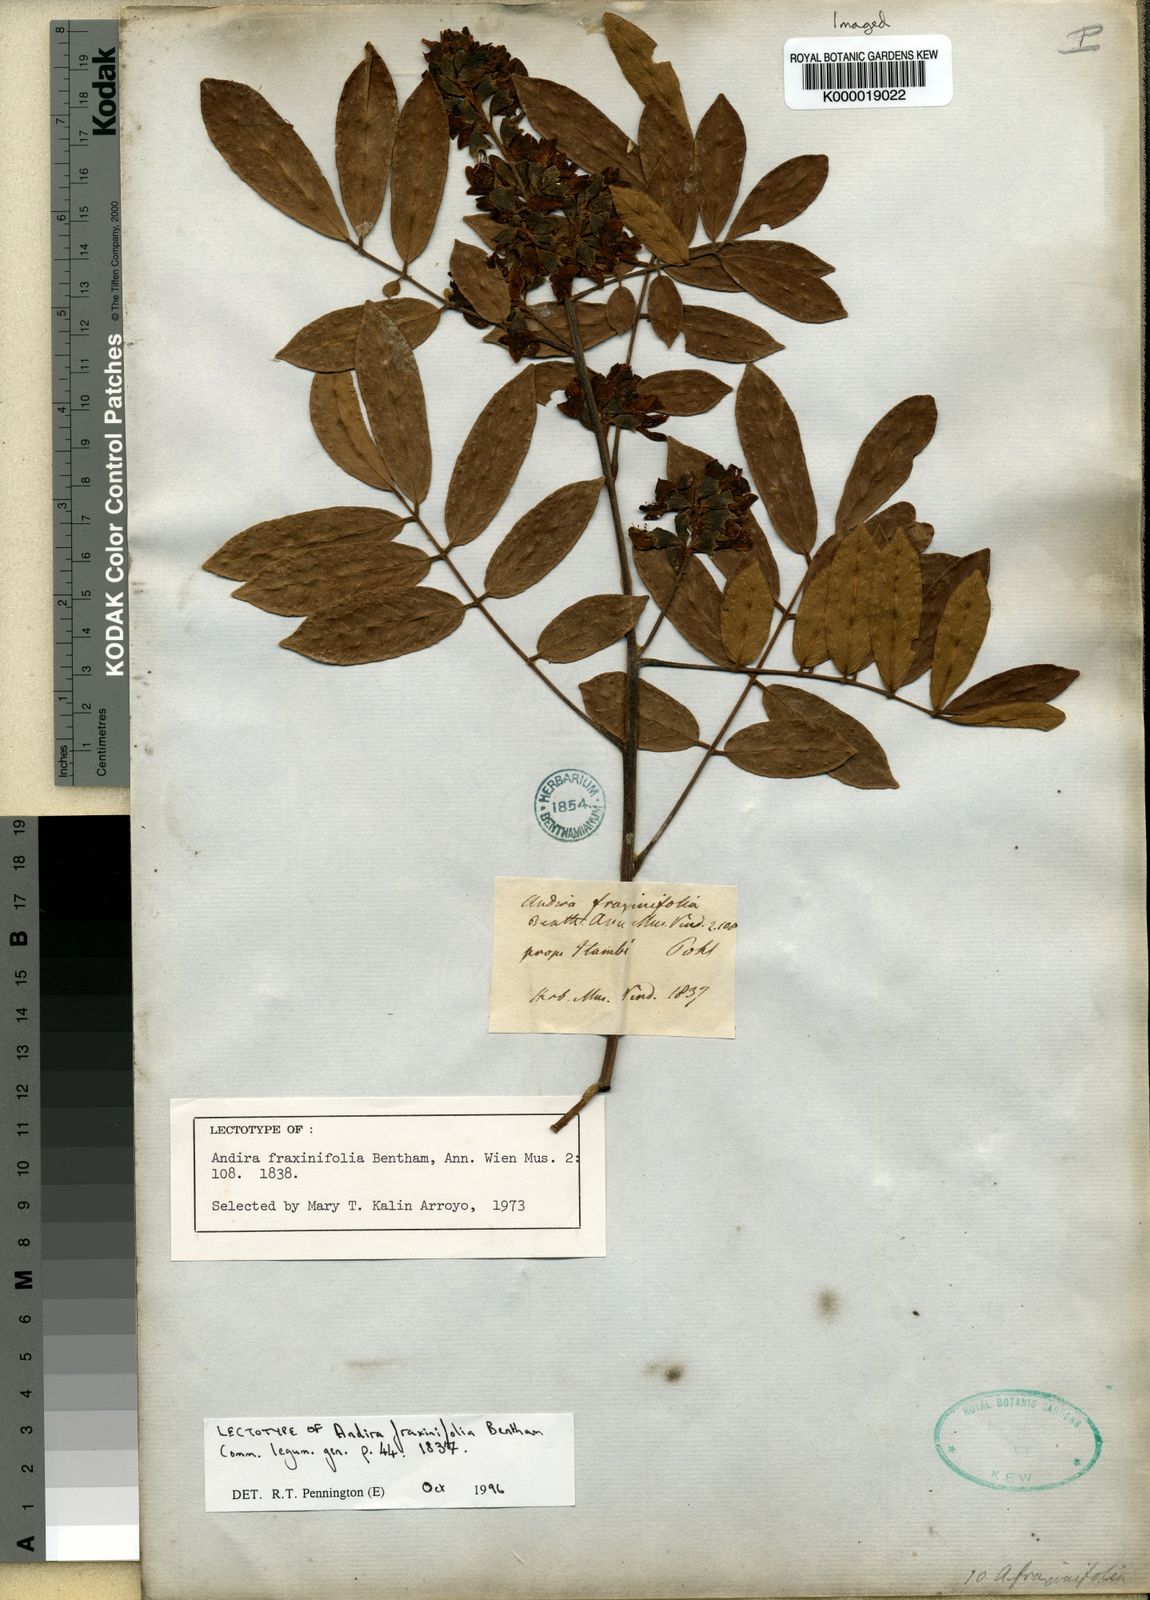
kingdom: Plantae
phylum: Tracheophyta
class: Magnoliopsida
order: Fabales
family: Fabaceae
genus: Andira
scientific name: Andira fraxinifolia
